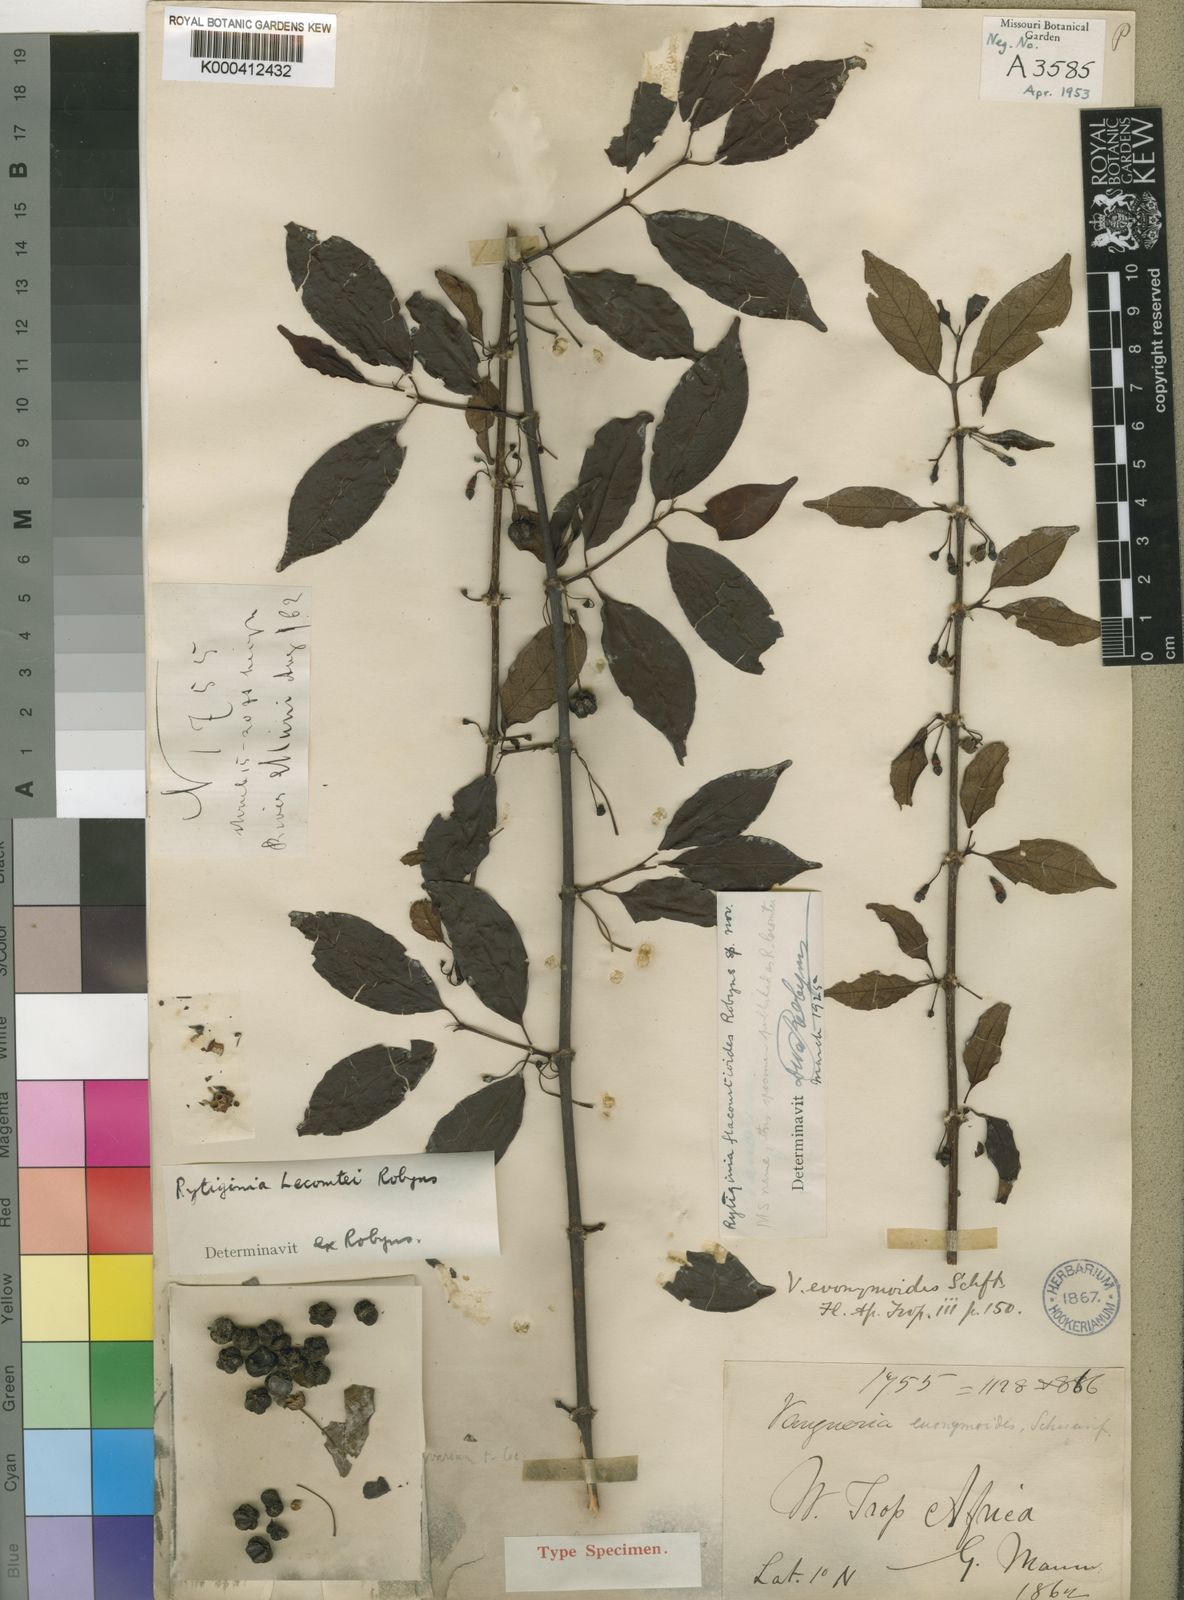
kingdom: Plantae
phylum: Tracheophyta
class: Magnoliopsida
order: Gentianales
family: Rubiaceae
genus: Rytigynia
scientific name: Rytigynia lecomtei
